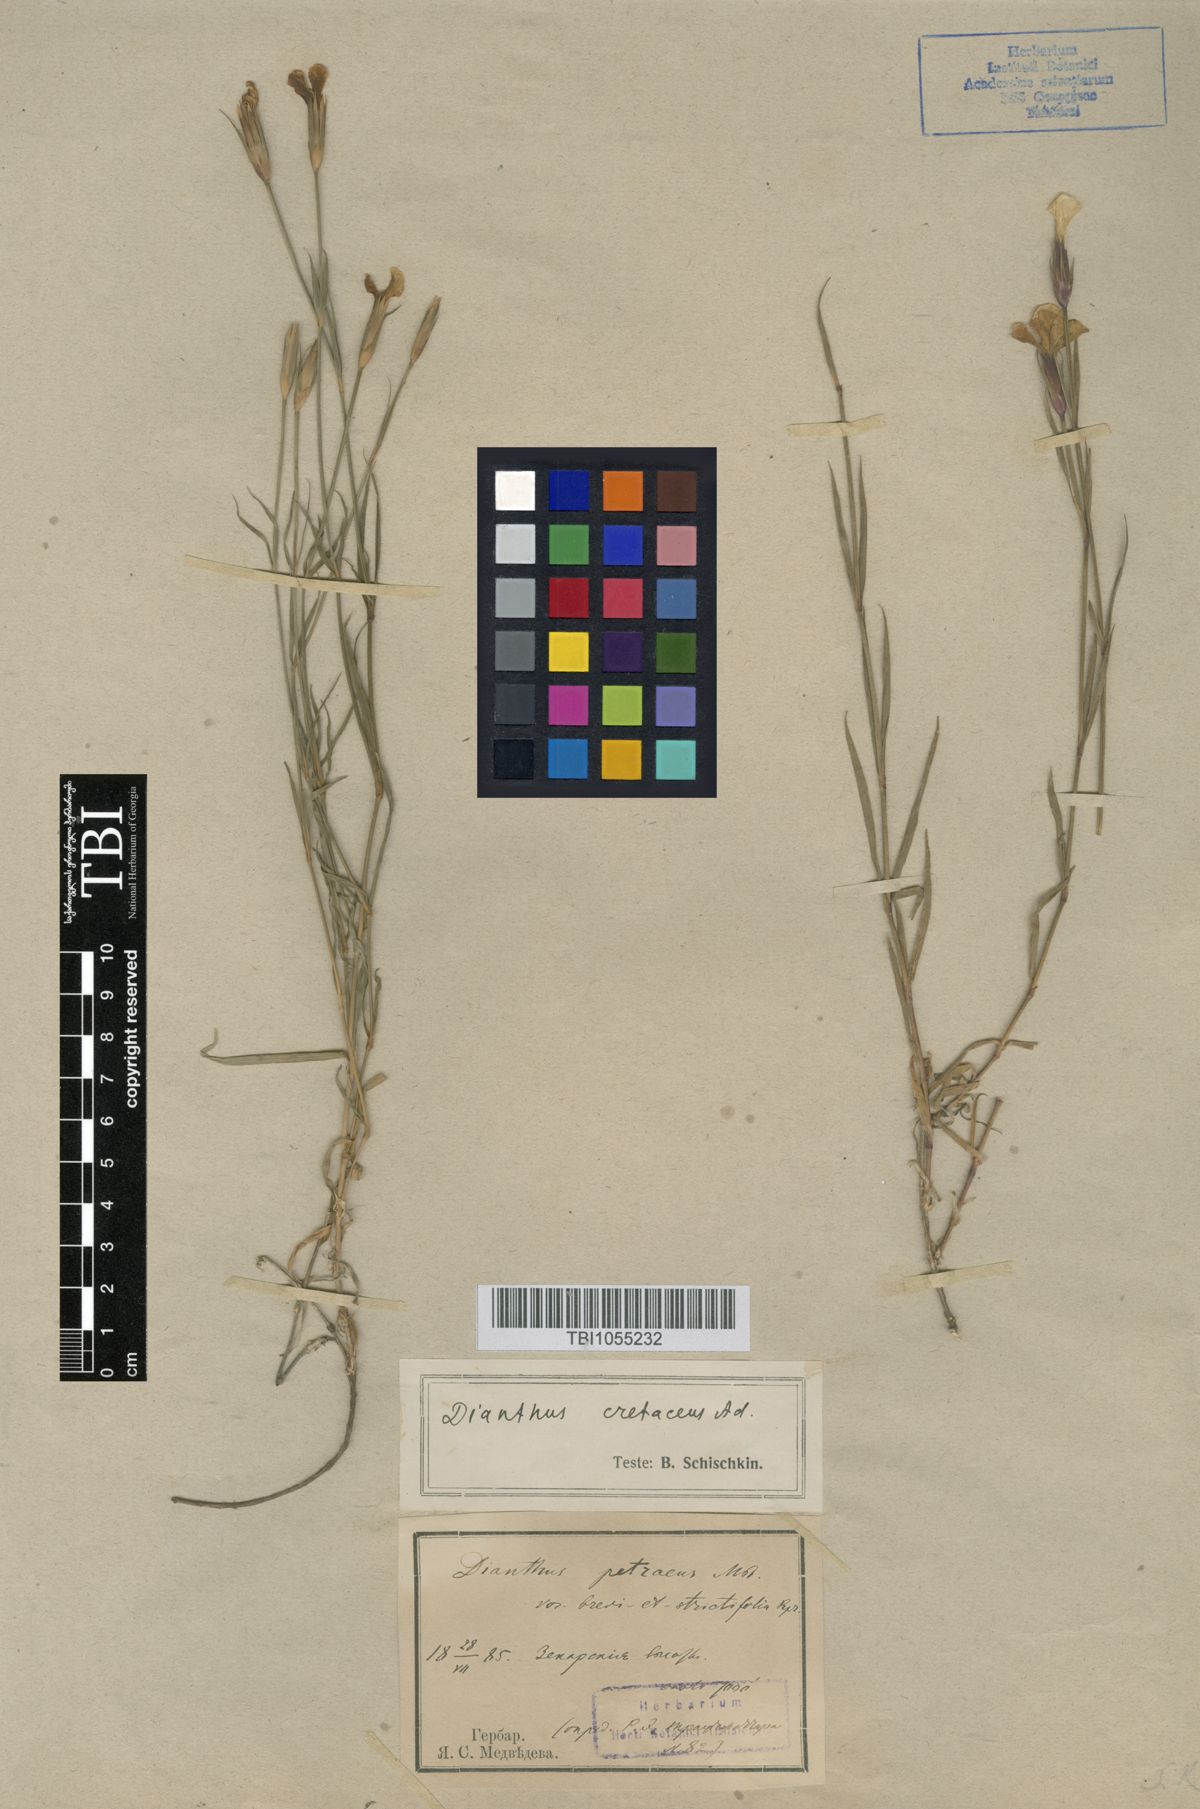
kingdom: Plantae
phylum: Tracheophyta
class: Magnoliopsida
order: Caryophyllales
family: Caryophyllaceae
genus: Dianthus
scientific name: Dianthus cretaceus
